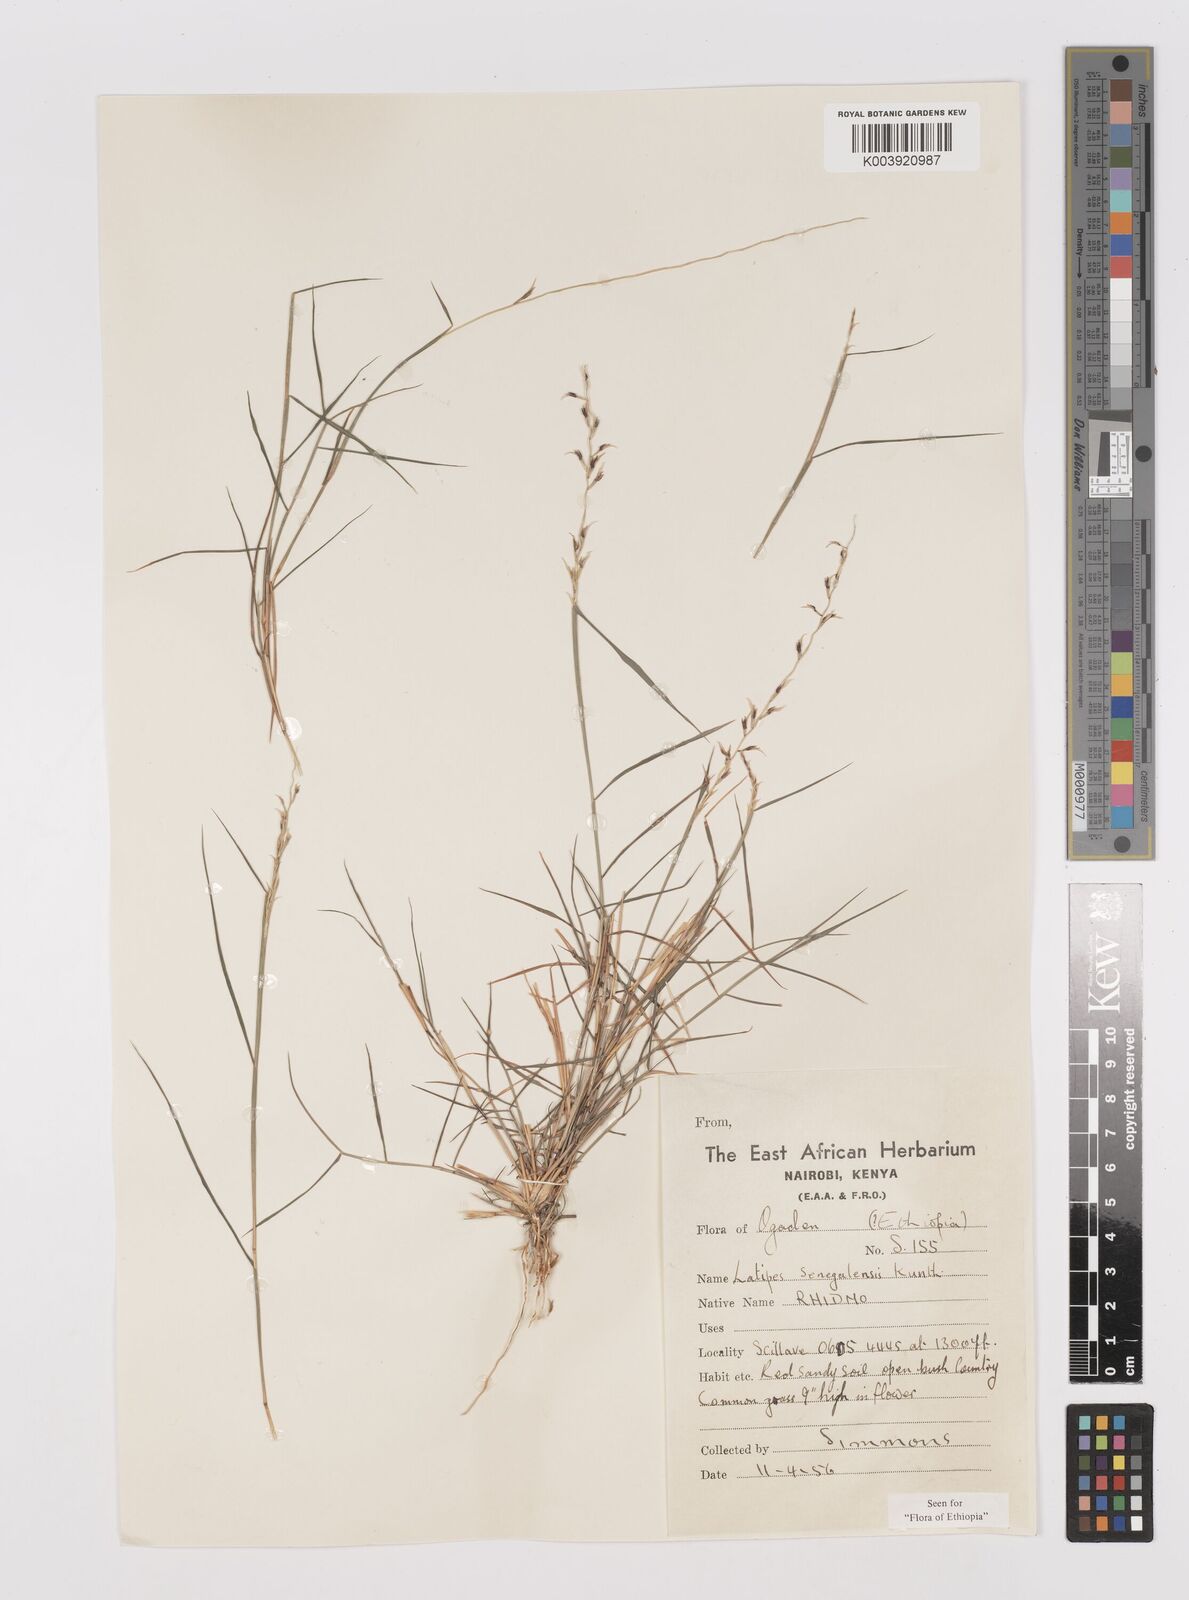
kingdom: Plantae
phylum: Tracheophyta
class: Liliopsida
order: Poales
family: Poaceae
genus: Leptothrium
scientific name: Leptothrium senegalense
